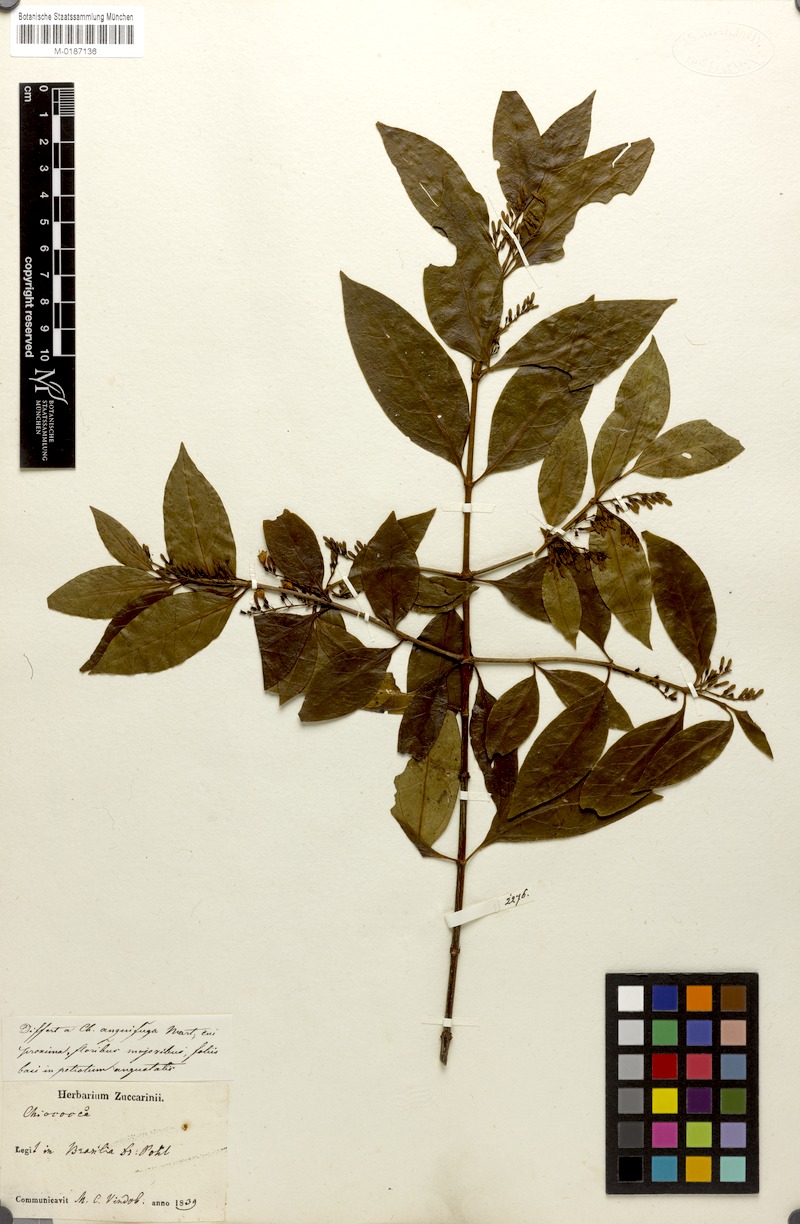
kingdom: Plantae
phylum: Tracheophyta
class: Magnoliopsida
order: Gentianales
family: Rubiaceae
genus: Chiococca
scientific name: Chiococca alba
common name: Snowberry
